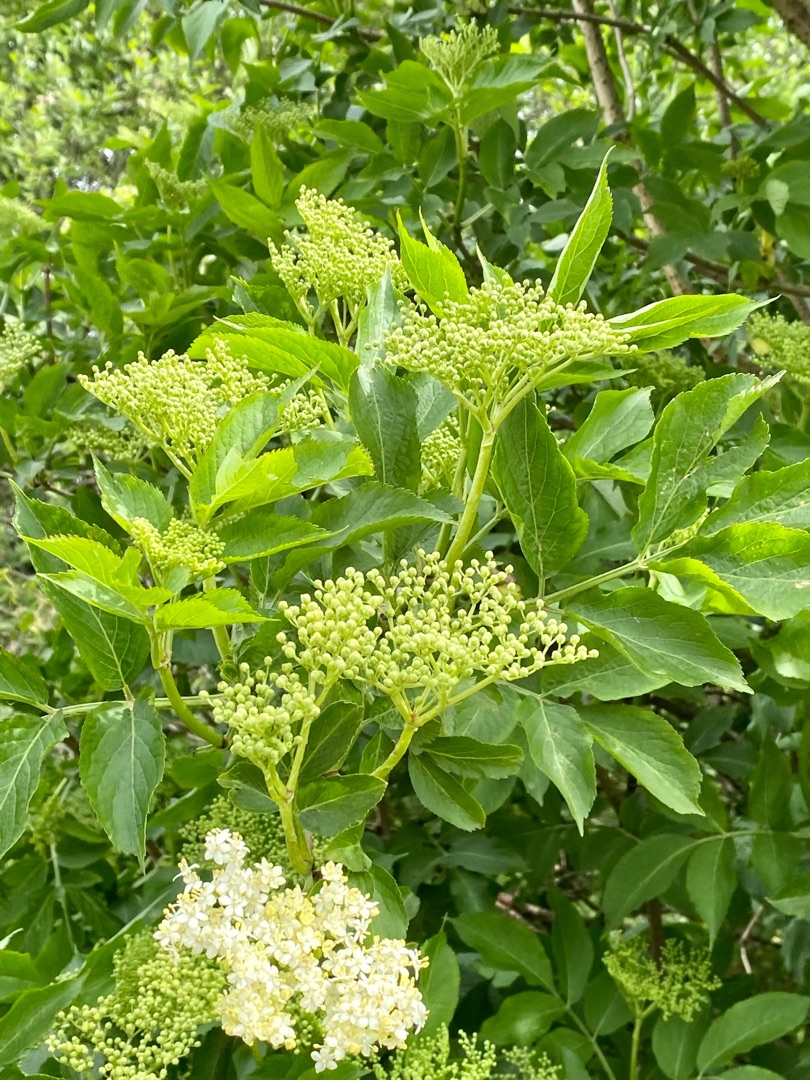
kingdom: Plantae
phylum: Tracheophyta
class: Magnoliopsida
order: Dipsacales
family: Viburnaceae
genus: Sambucus
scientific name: Sambucus nigra
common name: Almindelig hyld
